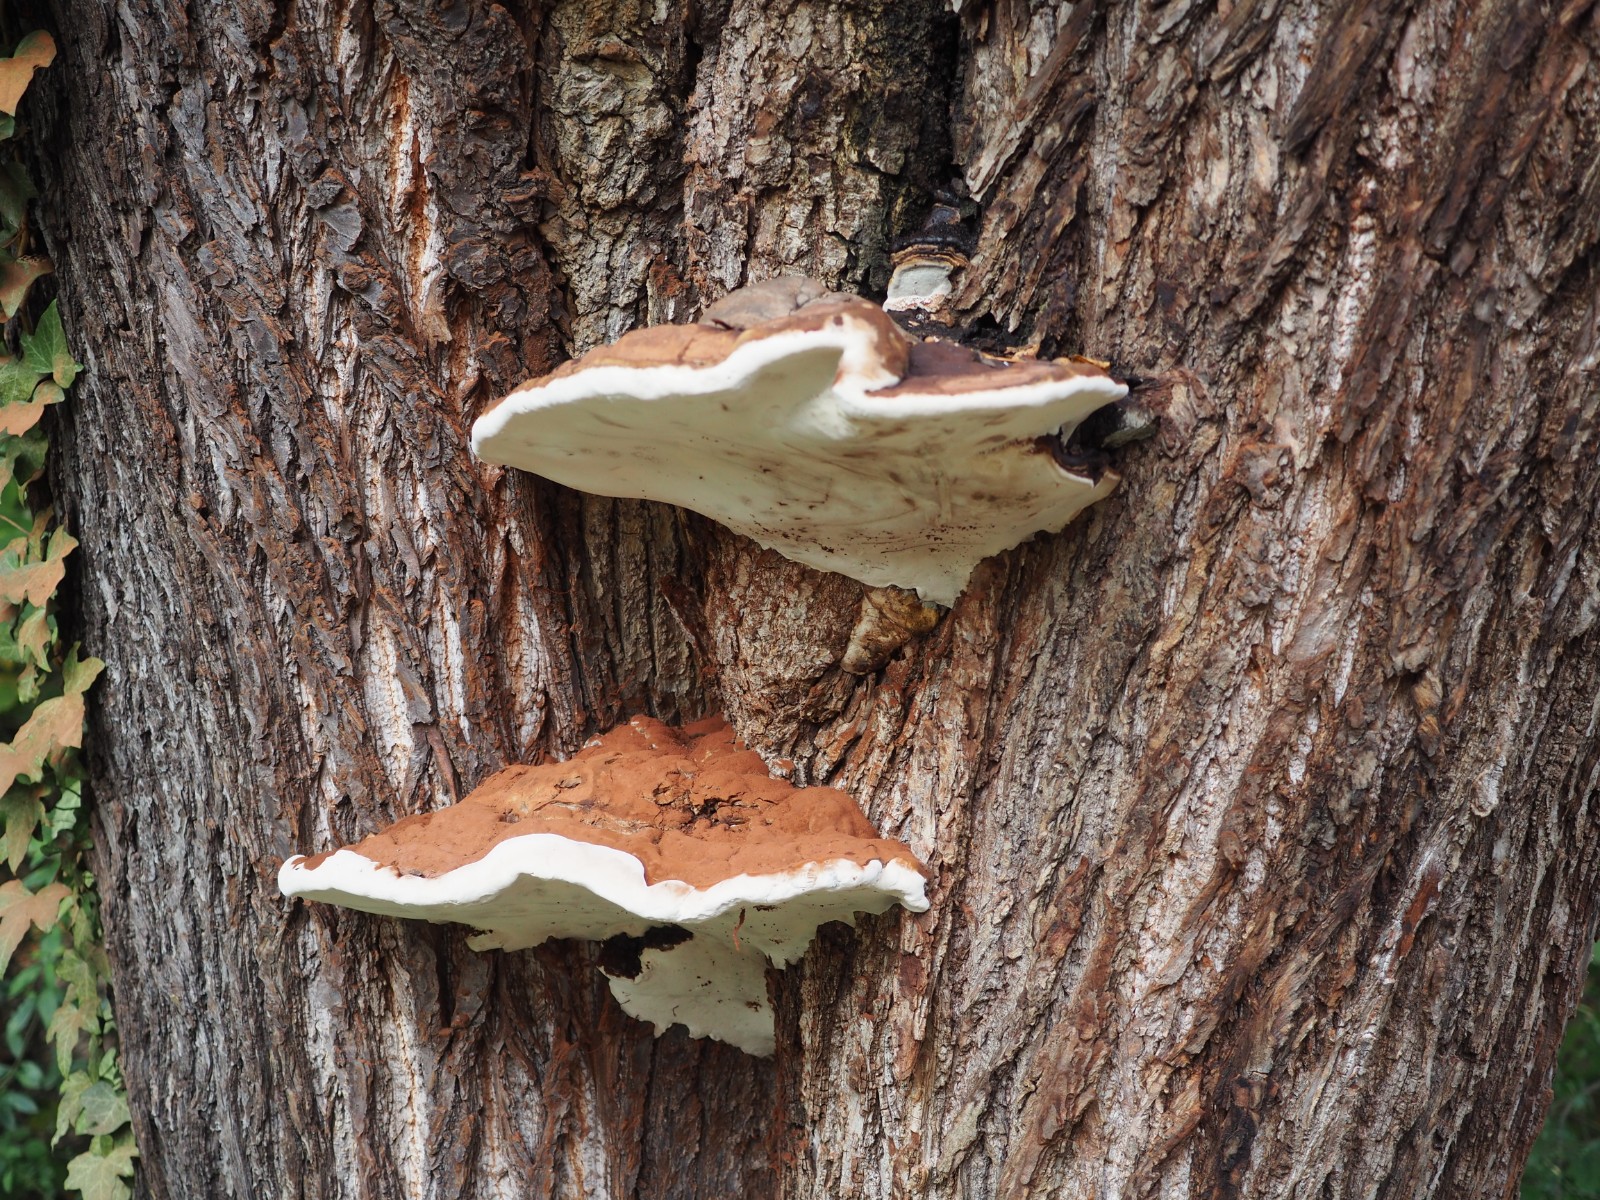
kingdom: Fungi
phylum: Basidiomycota
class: Agaricomycetes
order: Polyporales
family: Polyporaceae
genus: Ganoderma
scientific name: Ganoderma adspersum
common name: grov lakporesvamp
